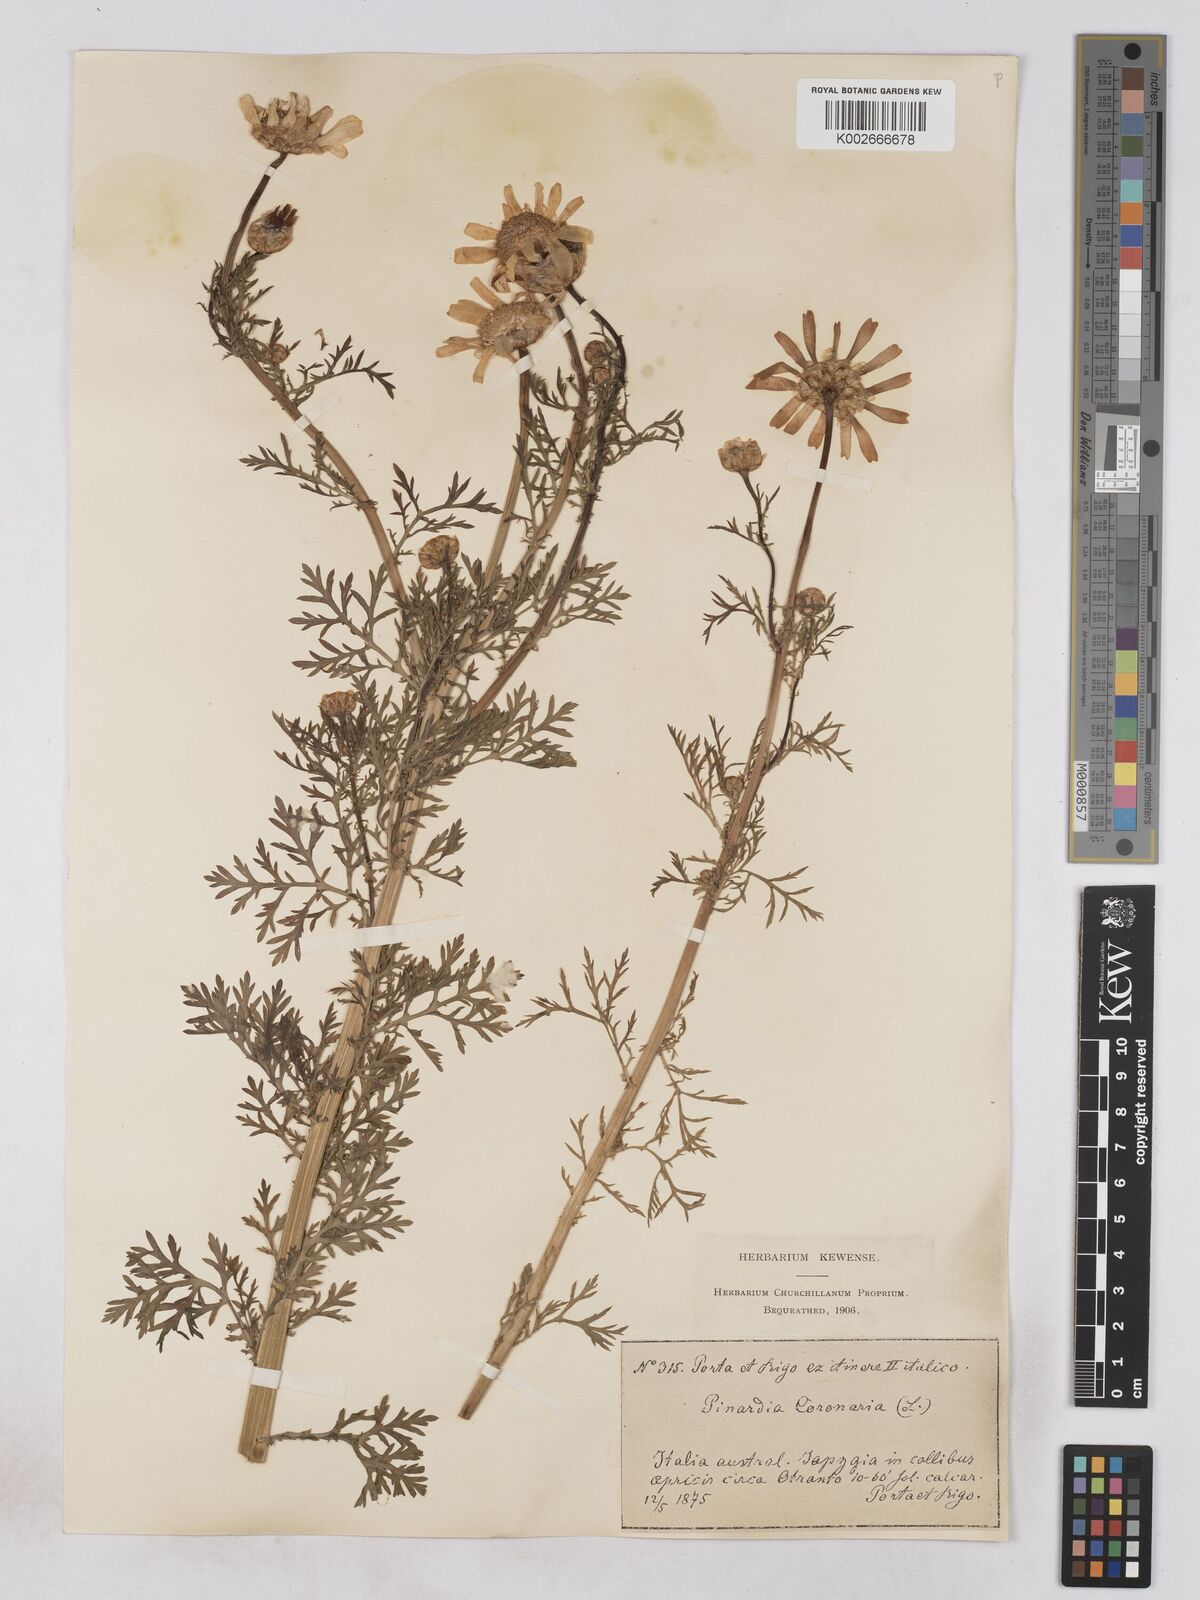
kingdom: Plantae
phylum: Tracheophyta
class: Magnoliopsida
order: Asterales
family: Asteraceae
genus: Glebionis
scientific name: Glebionis coronaria
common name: Crowndaisy
